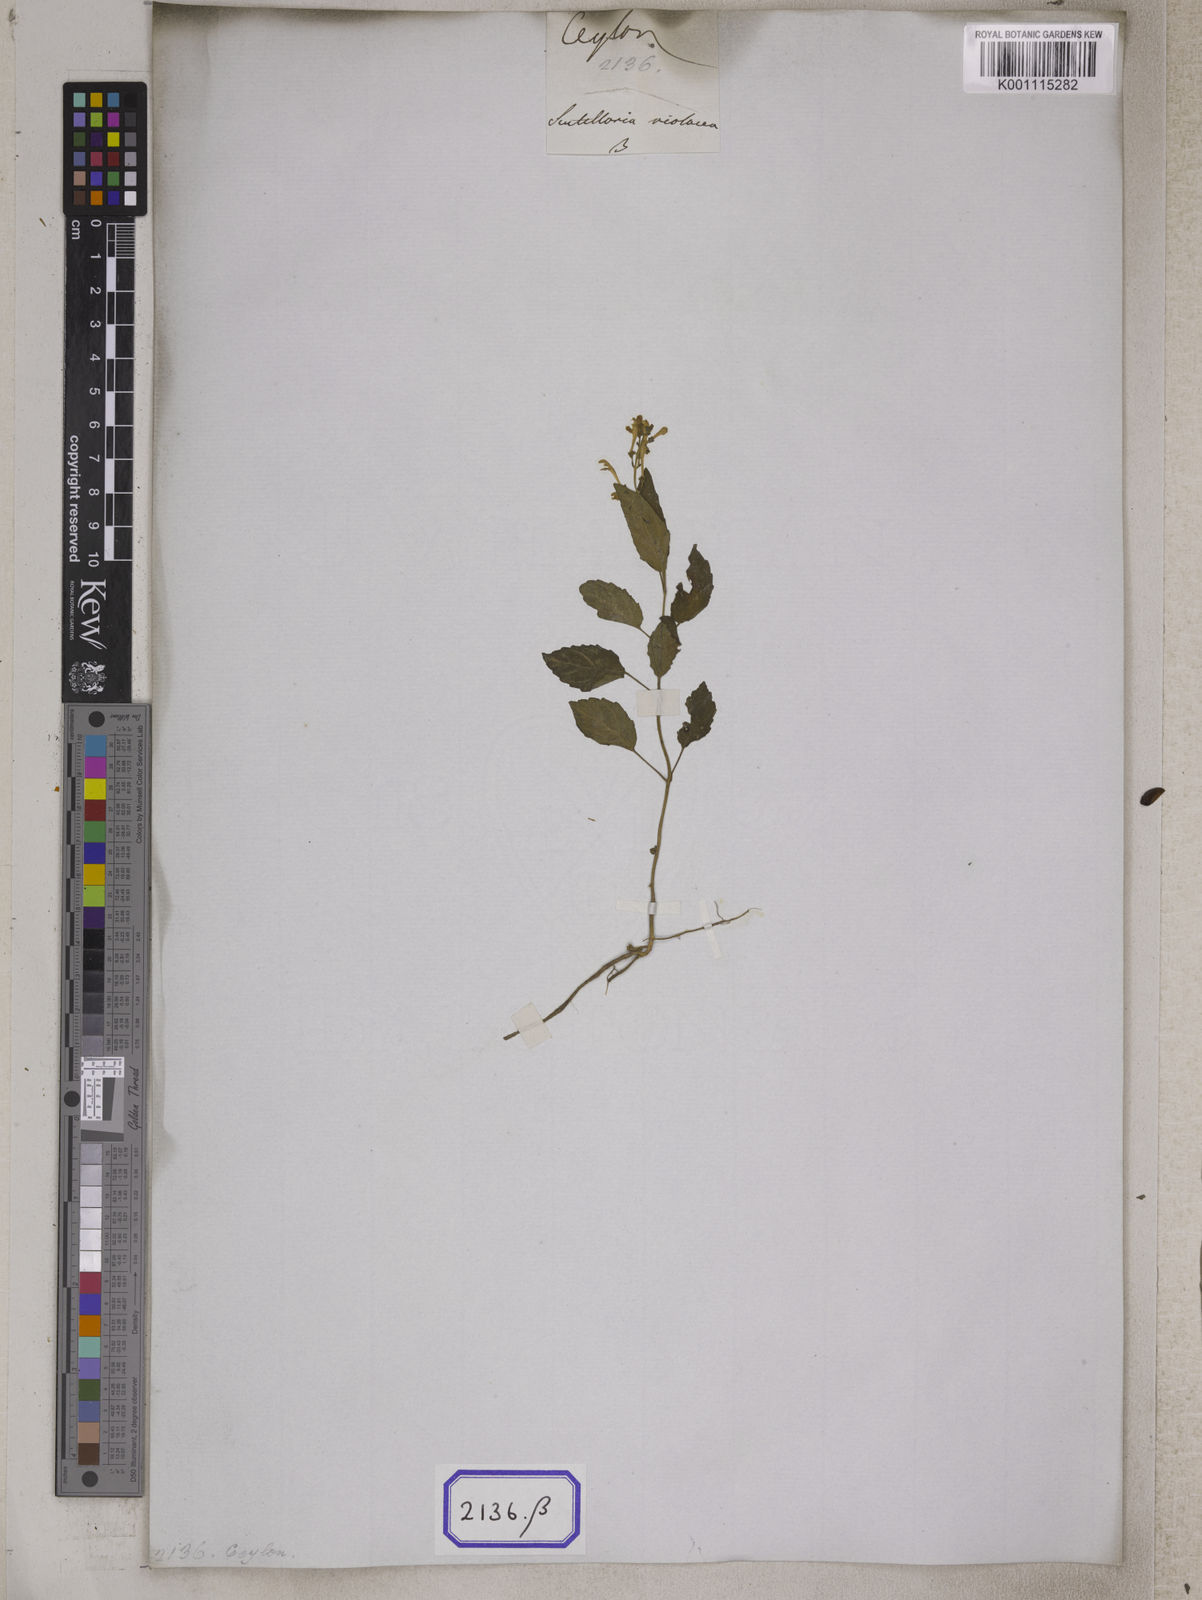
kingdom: Plantae
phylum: Tracheophyta
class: Magnoliopsida
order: Lamiales
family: Lamiaceae
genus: Scutellaria
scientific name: Scutellaria
